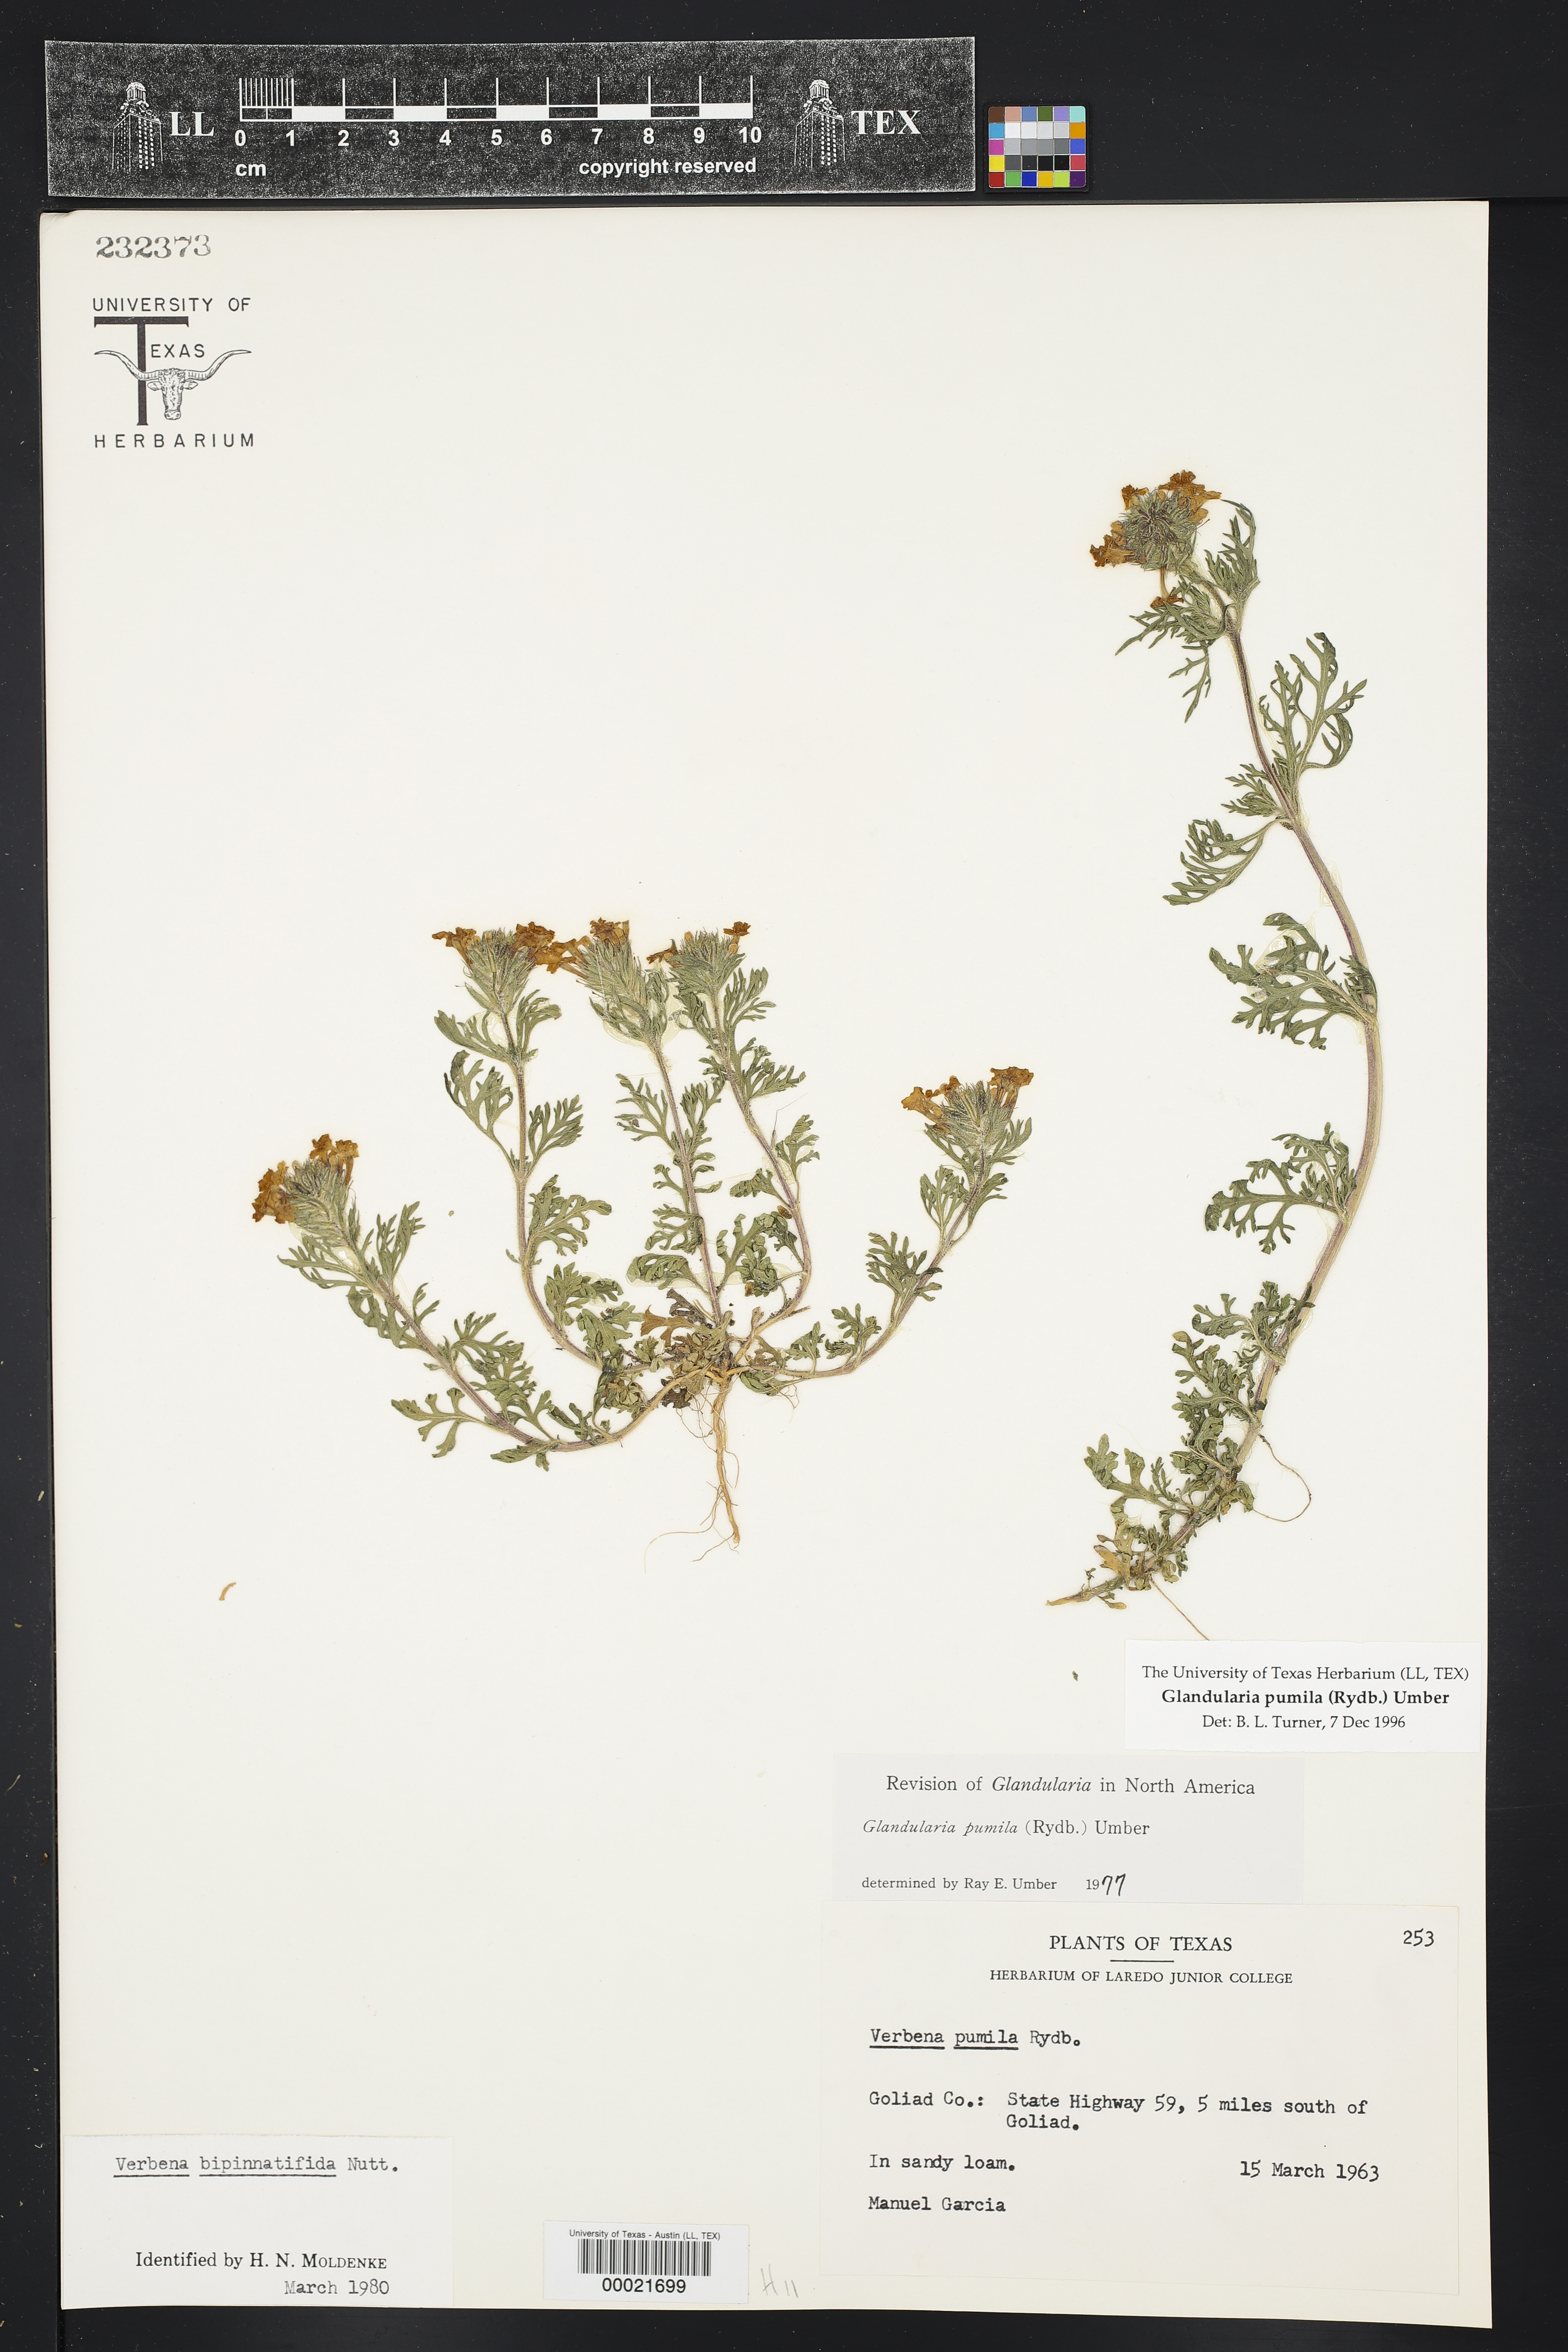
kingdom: Plantae
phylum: Tracheophyta
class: Magnoliopsida
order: Lamiales
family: Verbenaceae
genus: Verbena
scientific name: Verbena pumila
